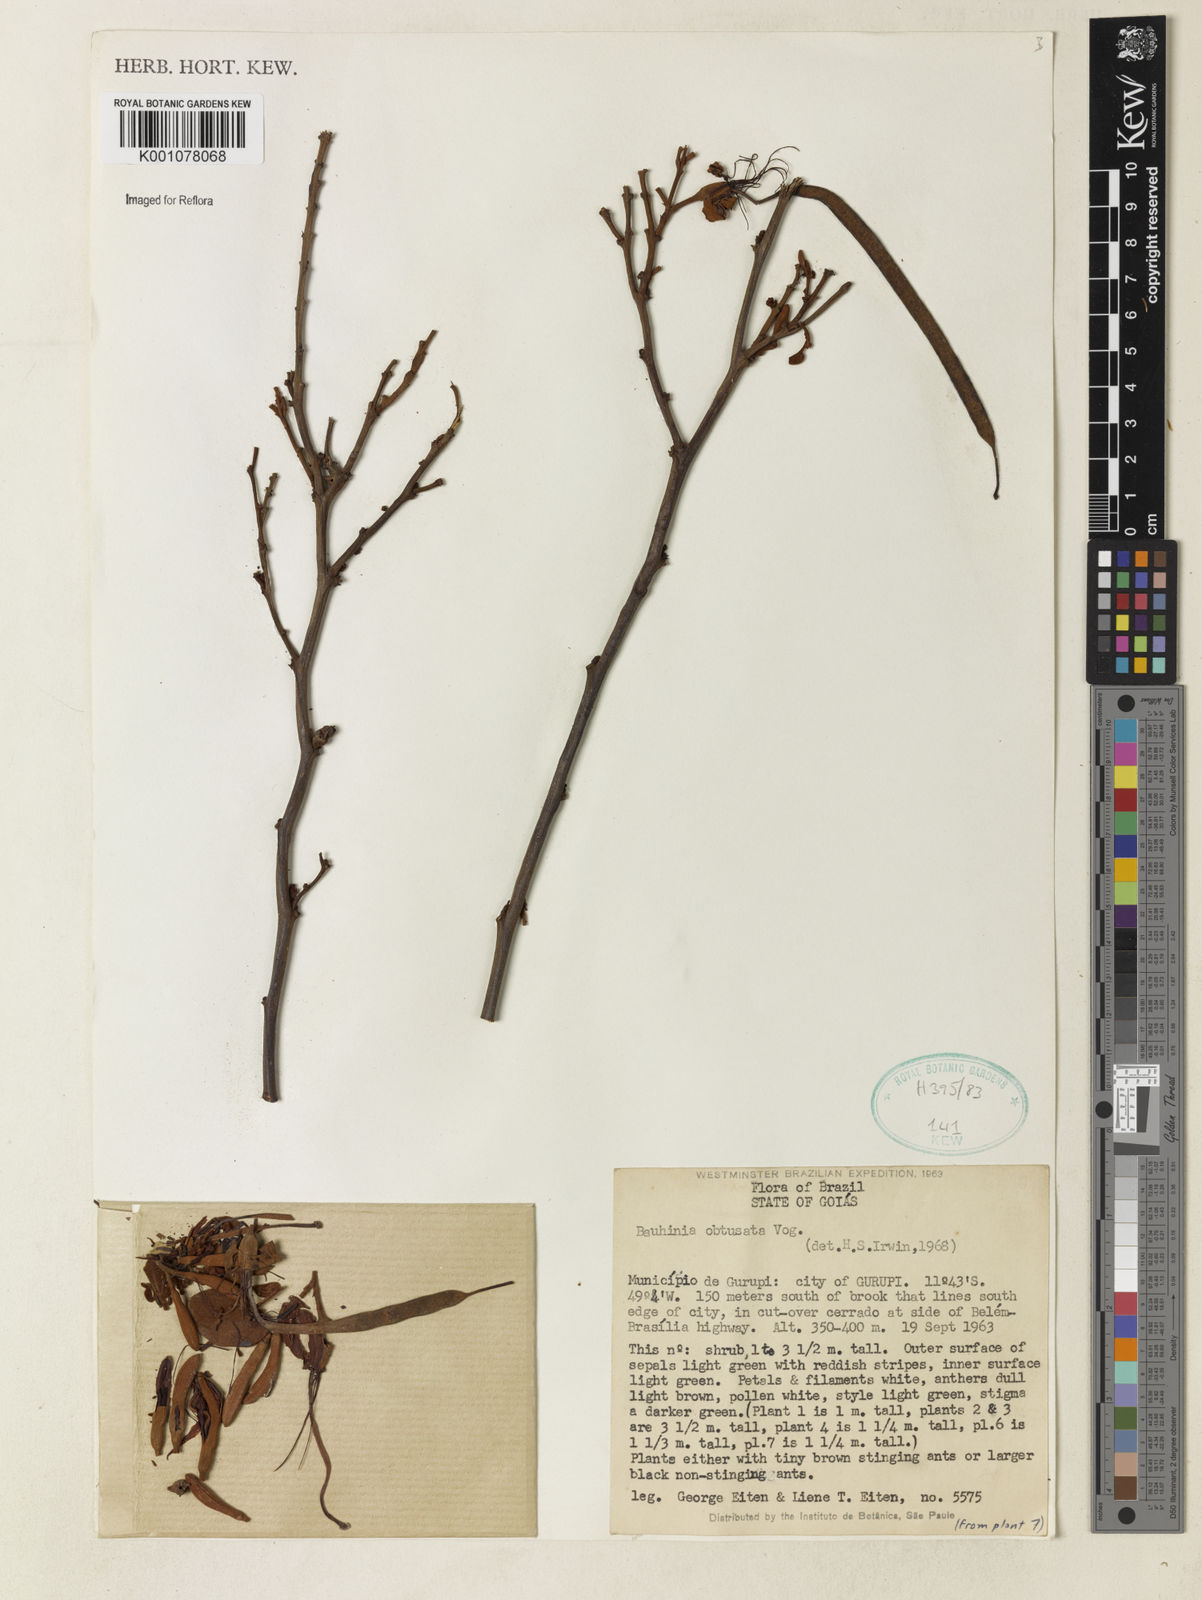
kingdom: Plantae
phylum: Tracheophyta
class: Magnoliopsida
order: Fabales
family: Fabaceae
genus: Bauhinia
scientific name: Bauhinia longifolia
